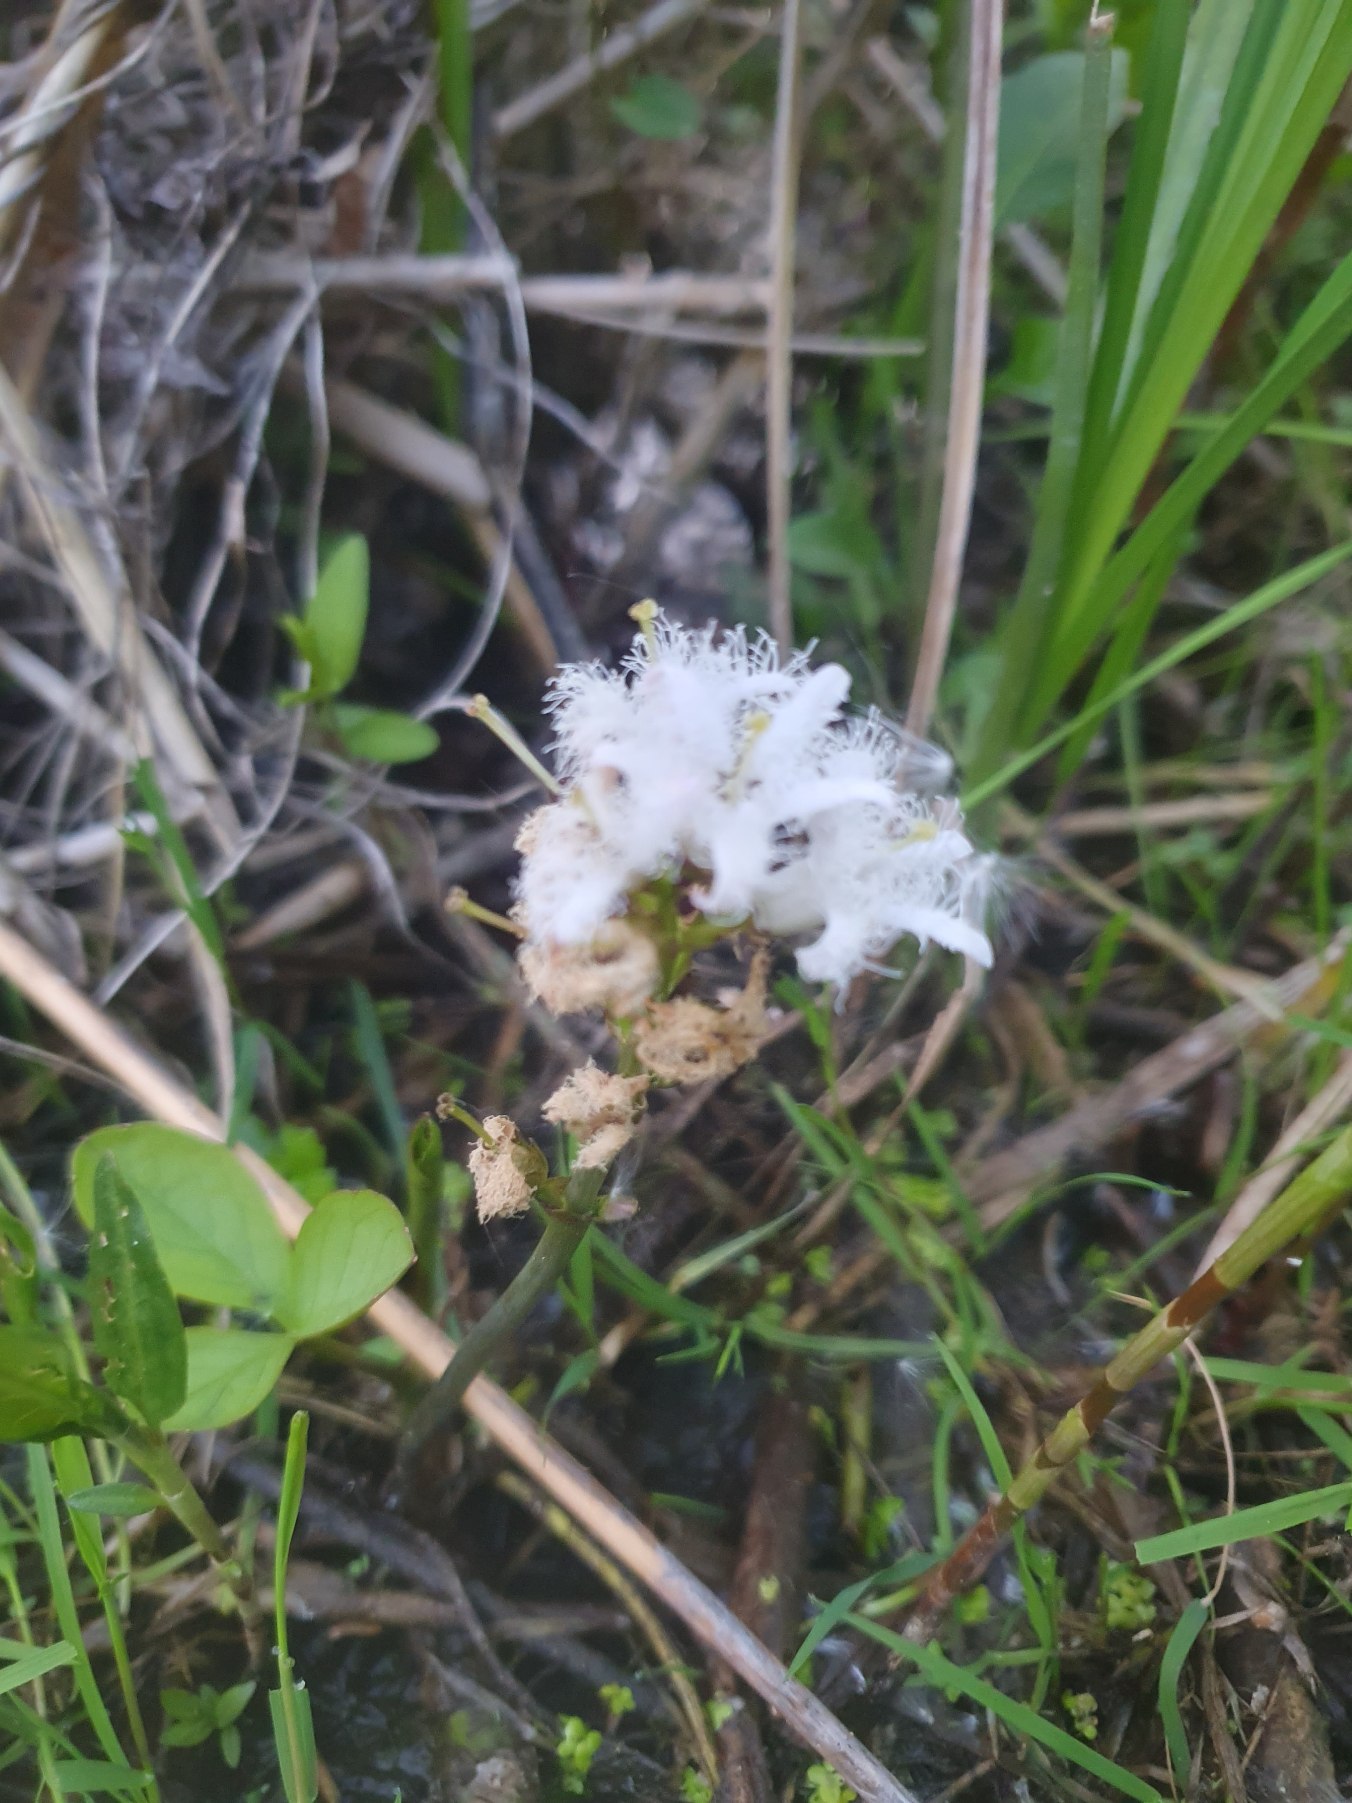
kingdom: Plantae
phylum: Tracheophyta
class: Magnoliopsida
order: Asterales
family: Menyanthaceae
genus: Menyanthes
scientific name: Menyanthes trifoliata
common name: Bukkeblad
